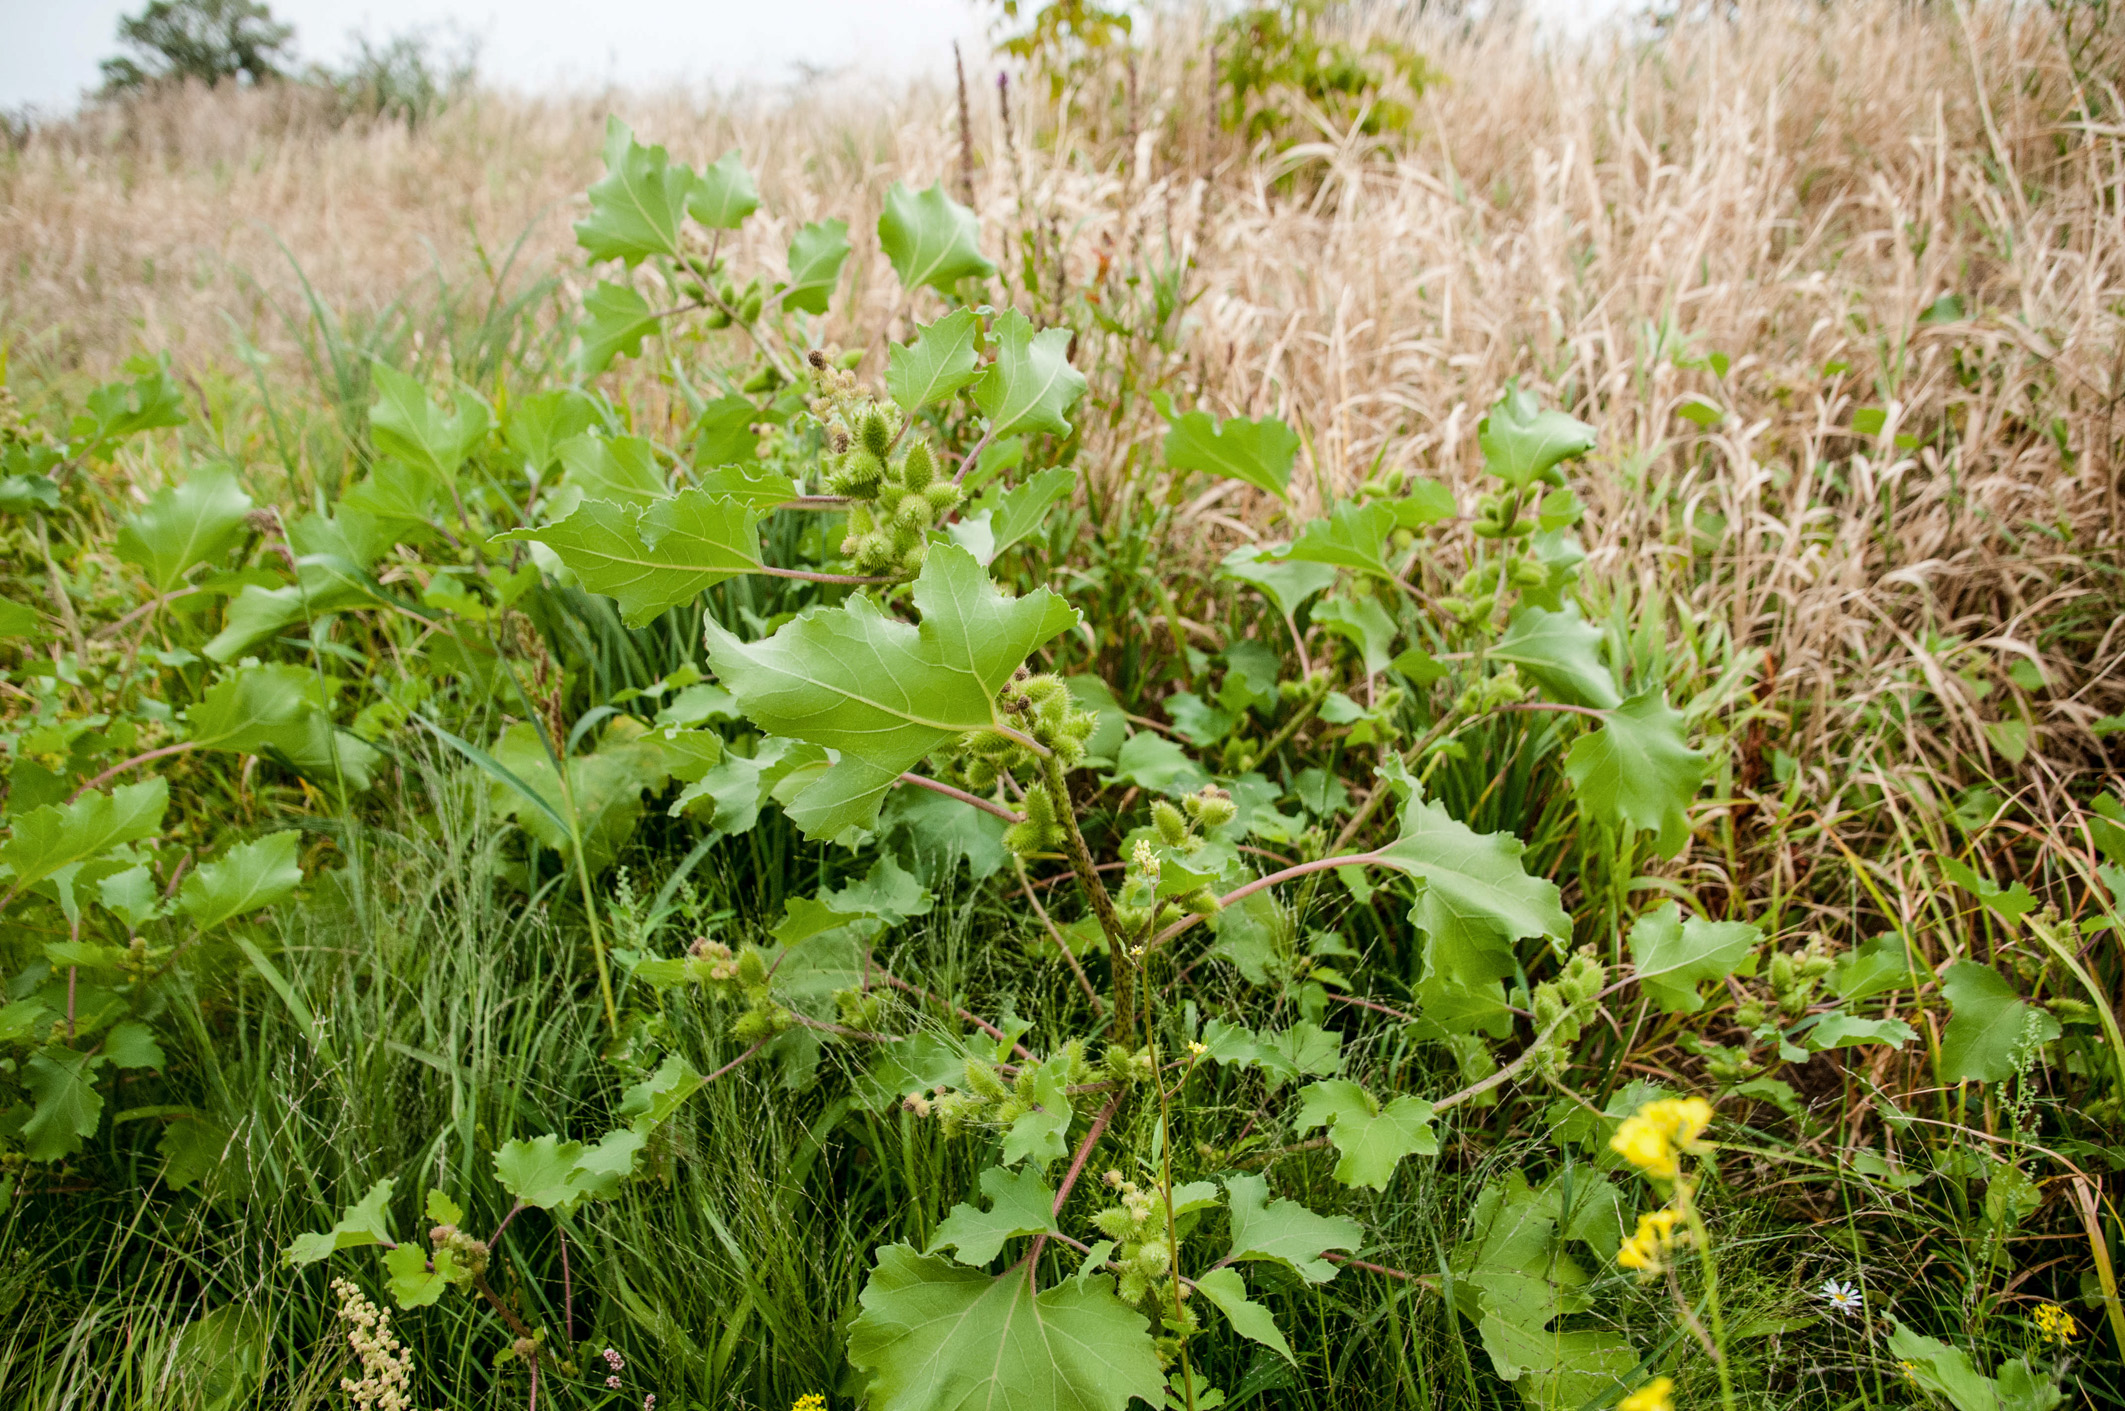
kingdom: Plantae
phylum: Tracheophyta
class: Magnoliopsida
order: Asterales
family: Asteraceae
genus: Xanthium
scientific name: Xanthium orientale
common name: Californian burr
